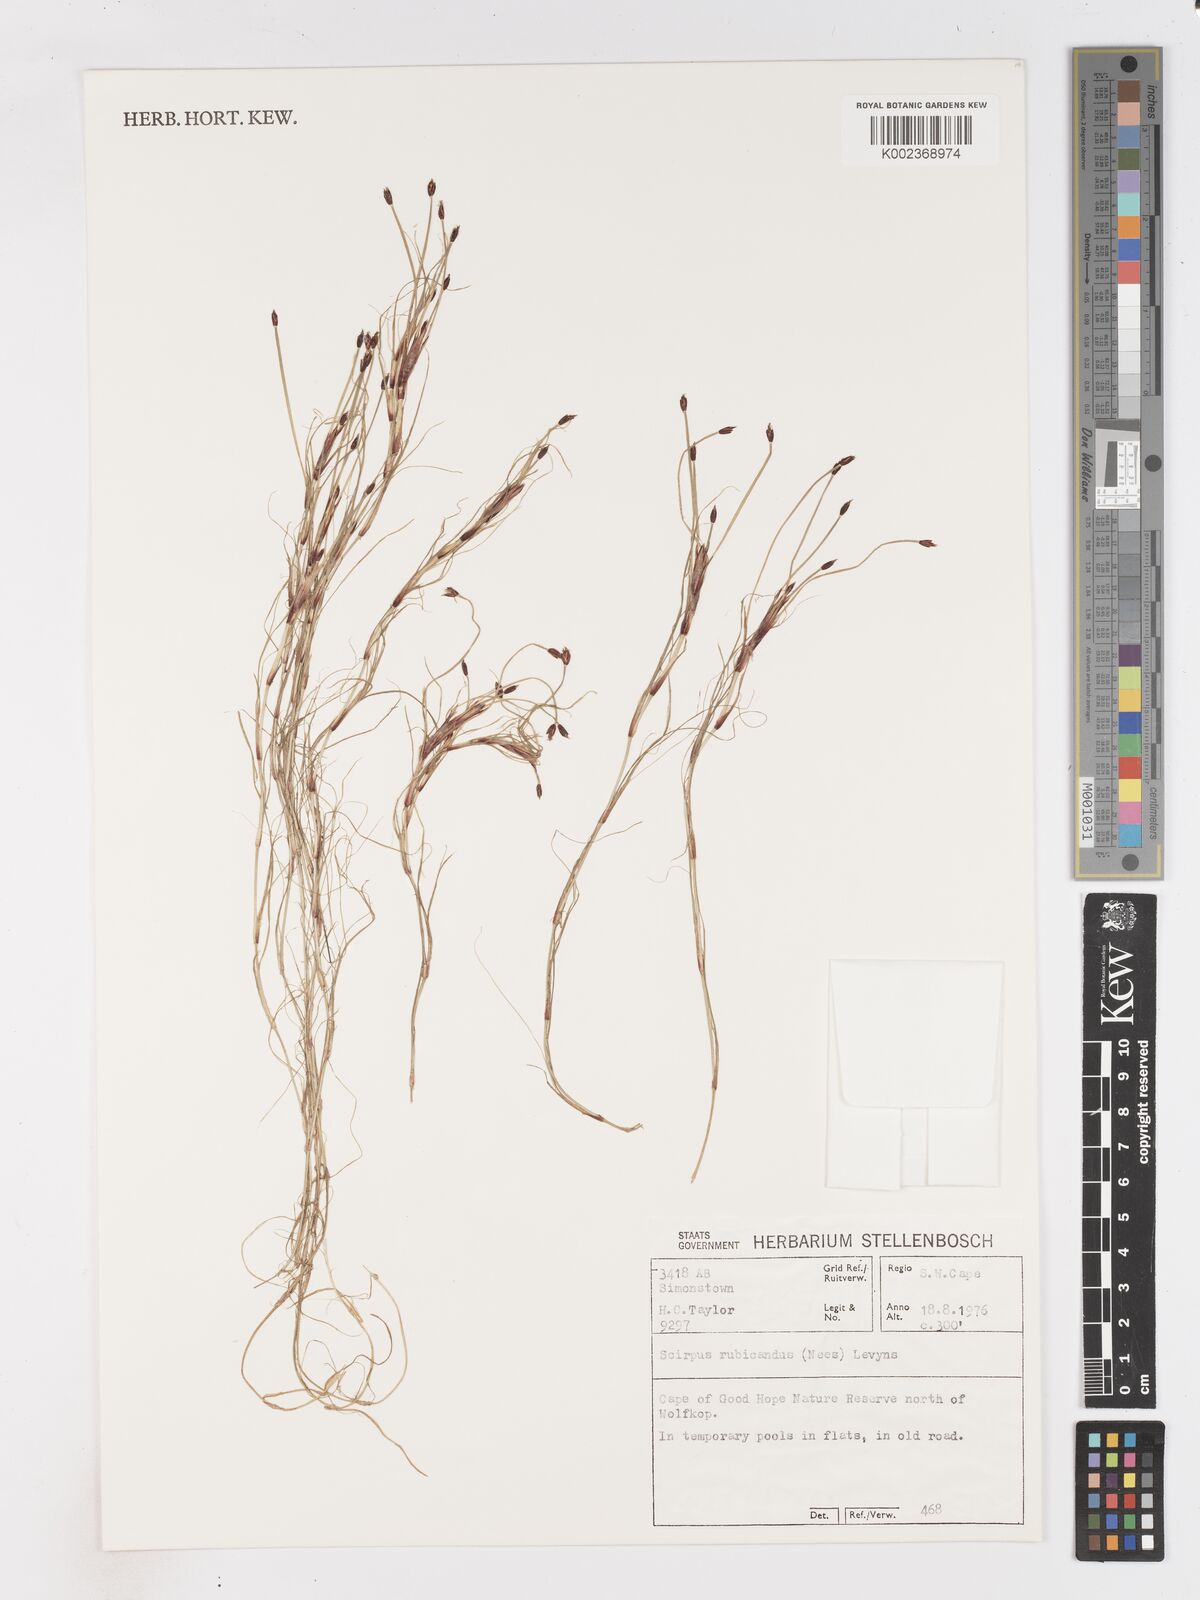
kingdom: Plantae
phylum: Tracheophyta
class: Liliopsida
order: Poales
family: Cyperaceae
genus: Isolepis
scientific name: Isolepis striata
